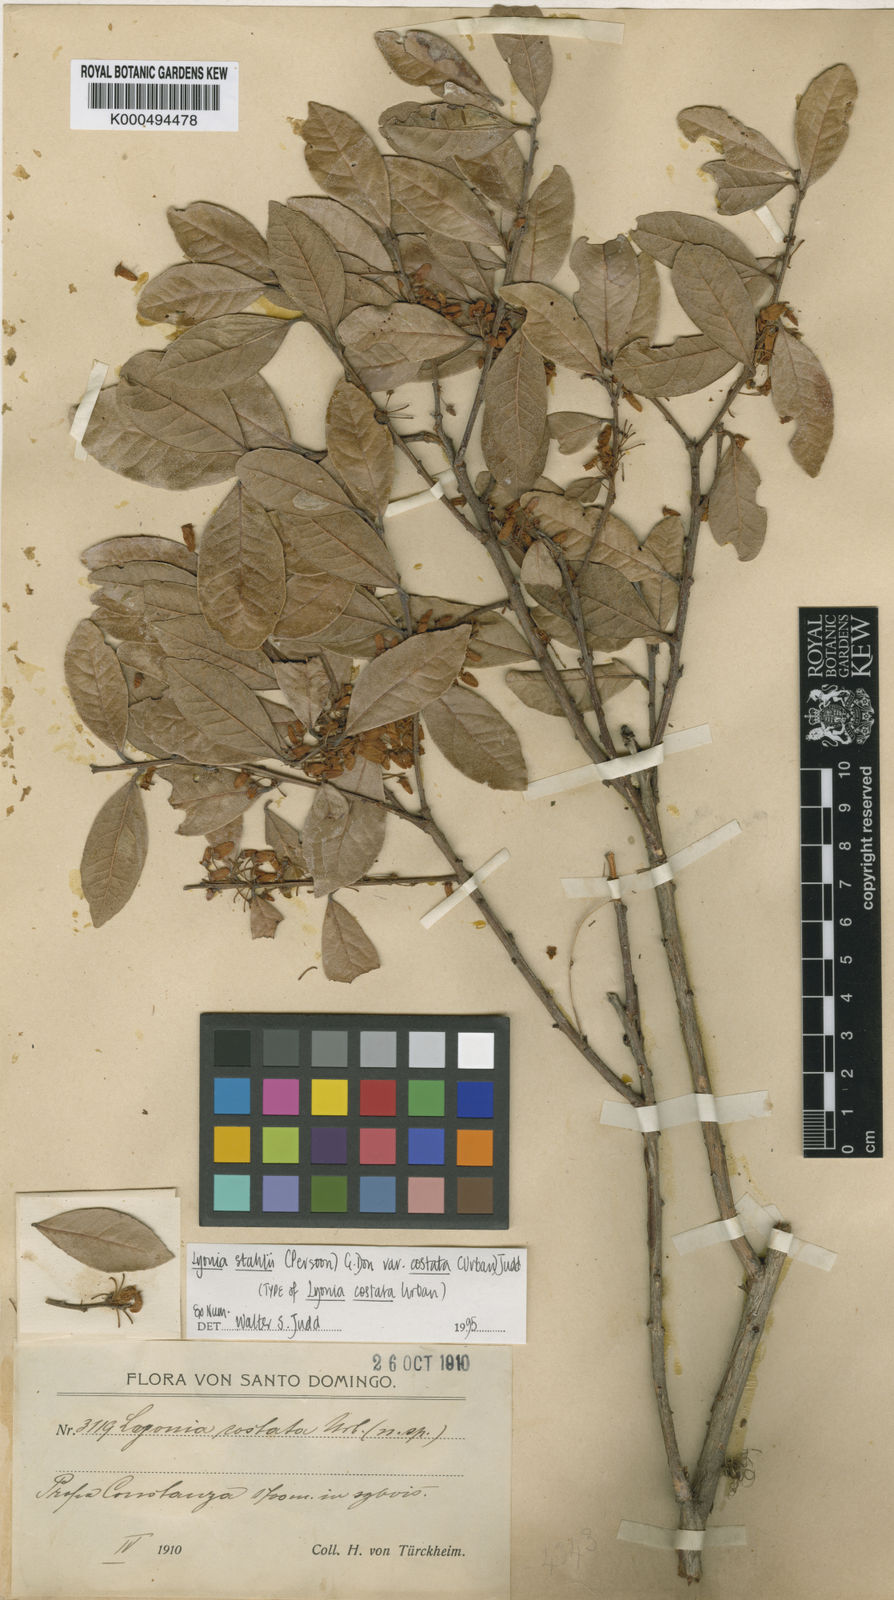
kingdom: Plantae
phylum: Tracheophyta
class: Magnoliopsida
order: Ericales
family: Ericaceae
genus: Lyonia
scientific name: Lyonia stahlii
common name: Stahl's staggerbush
